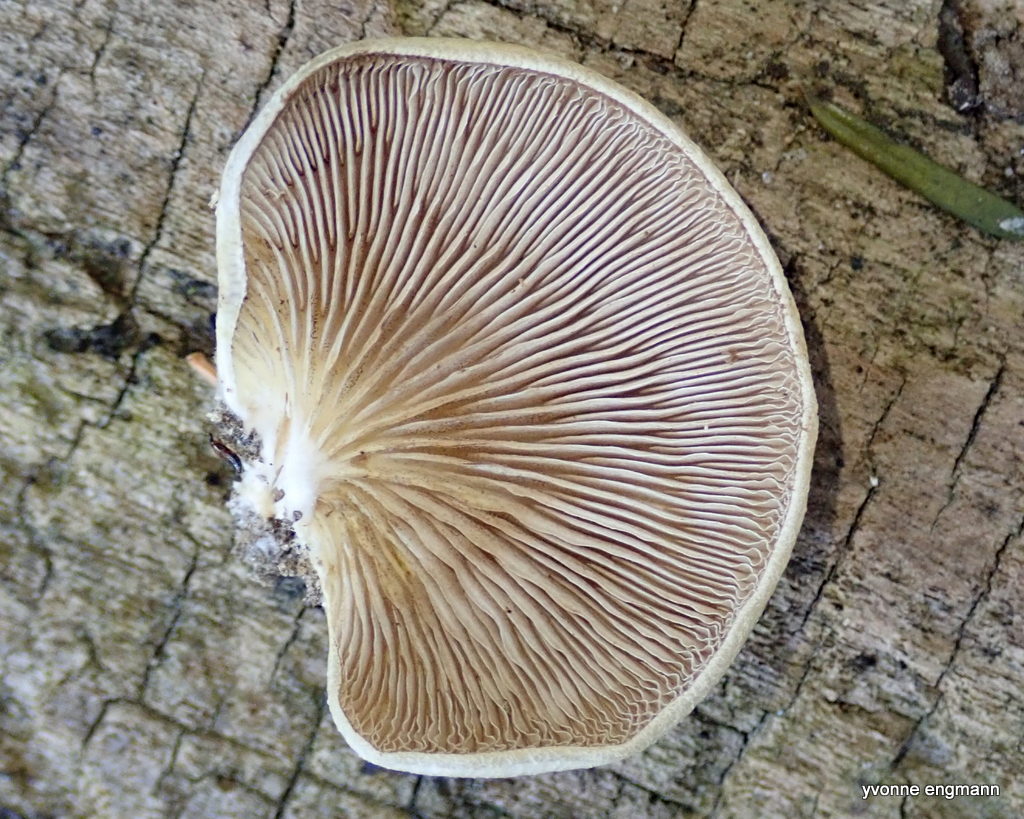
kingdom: Fungi
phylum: Basidiomycota
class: Agaricomycetes
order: Agaricales
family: Crepidotaceae
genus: Crepidotus
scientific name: Crepidotus calolepis
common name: småskællet muslingesvamp
